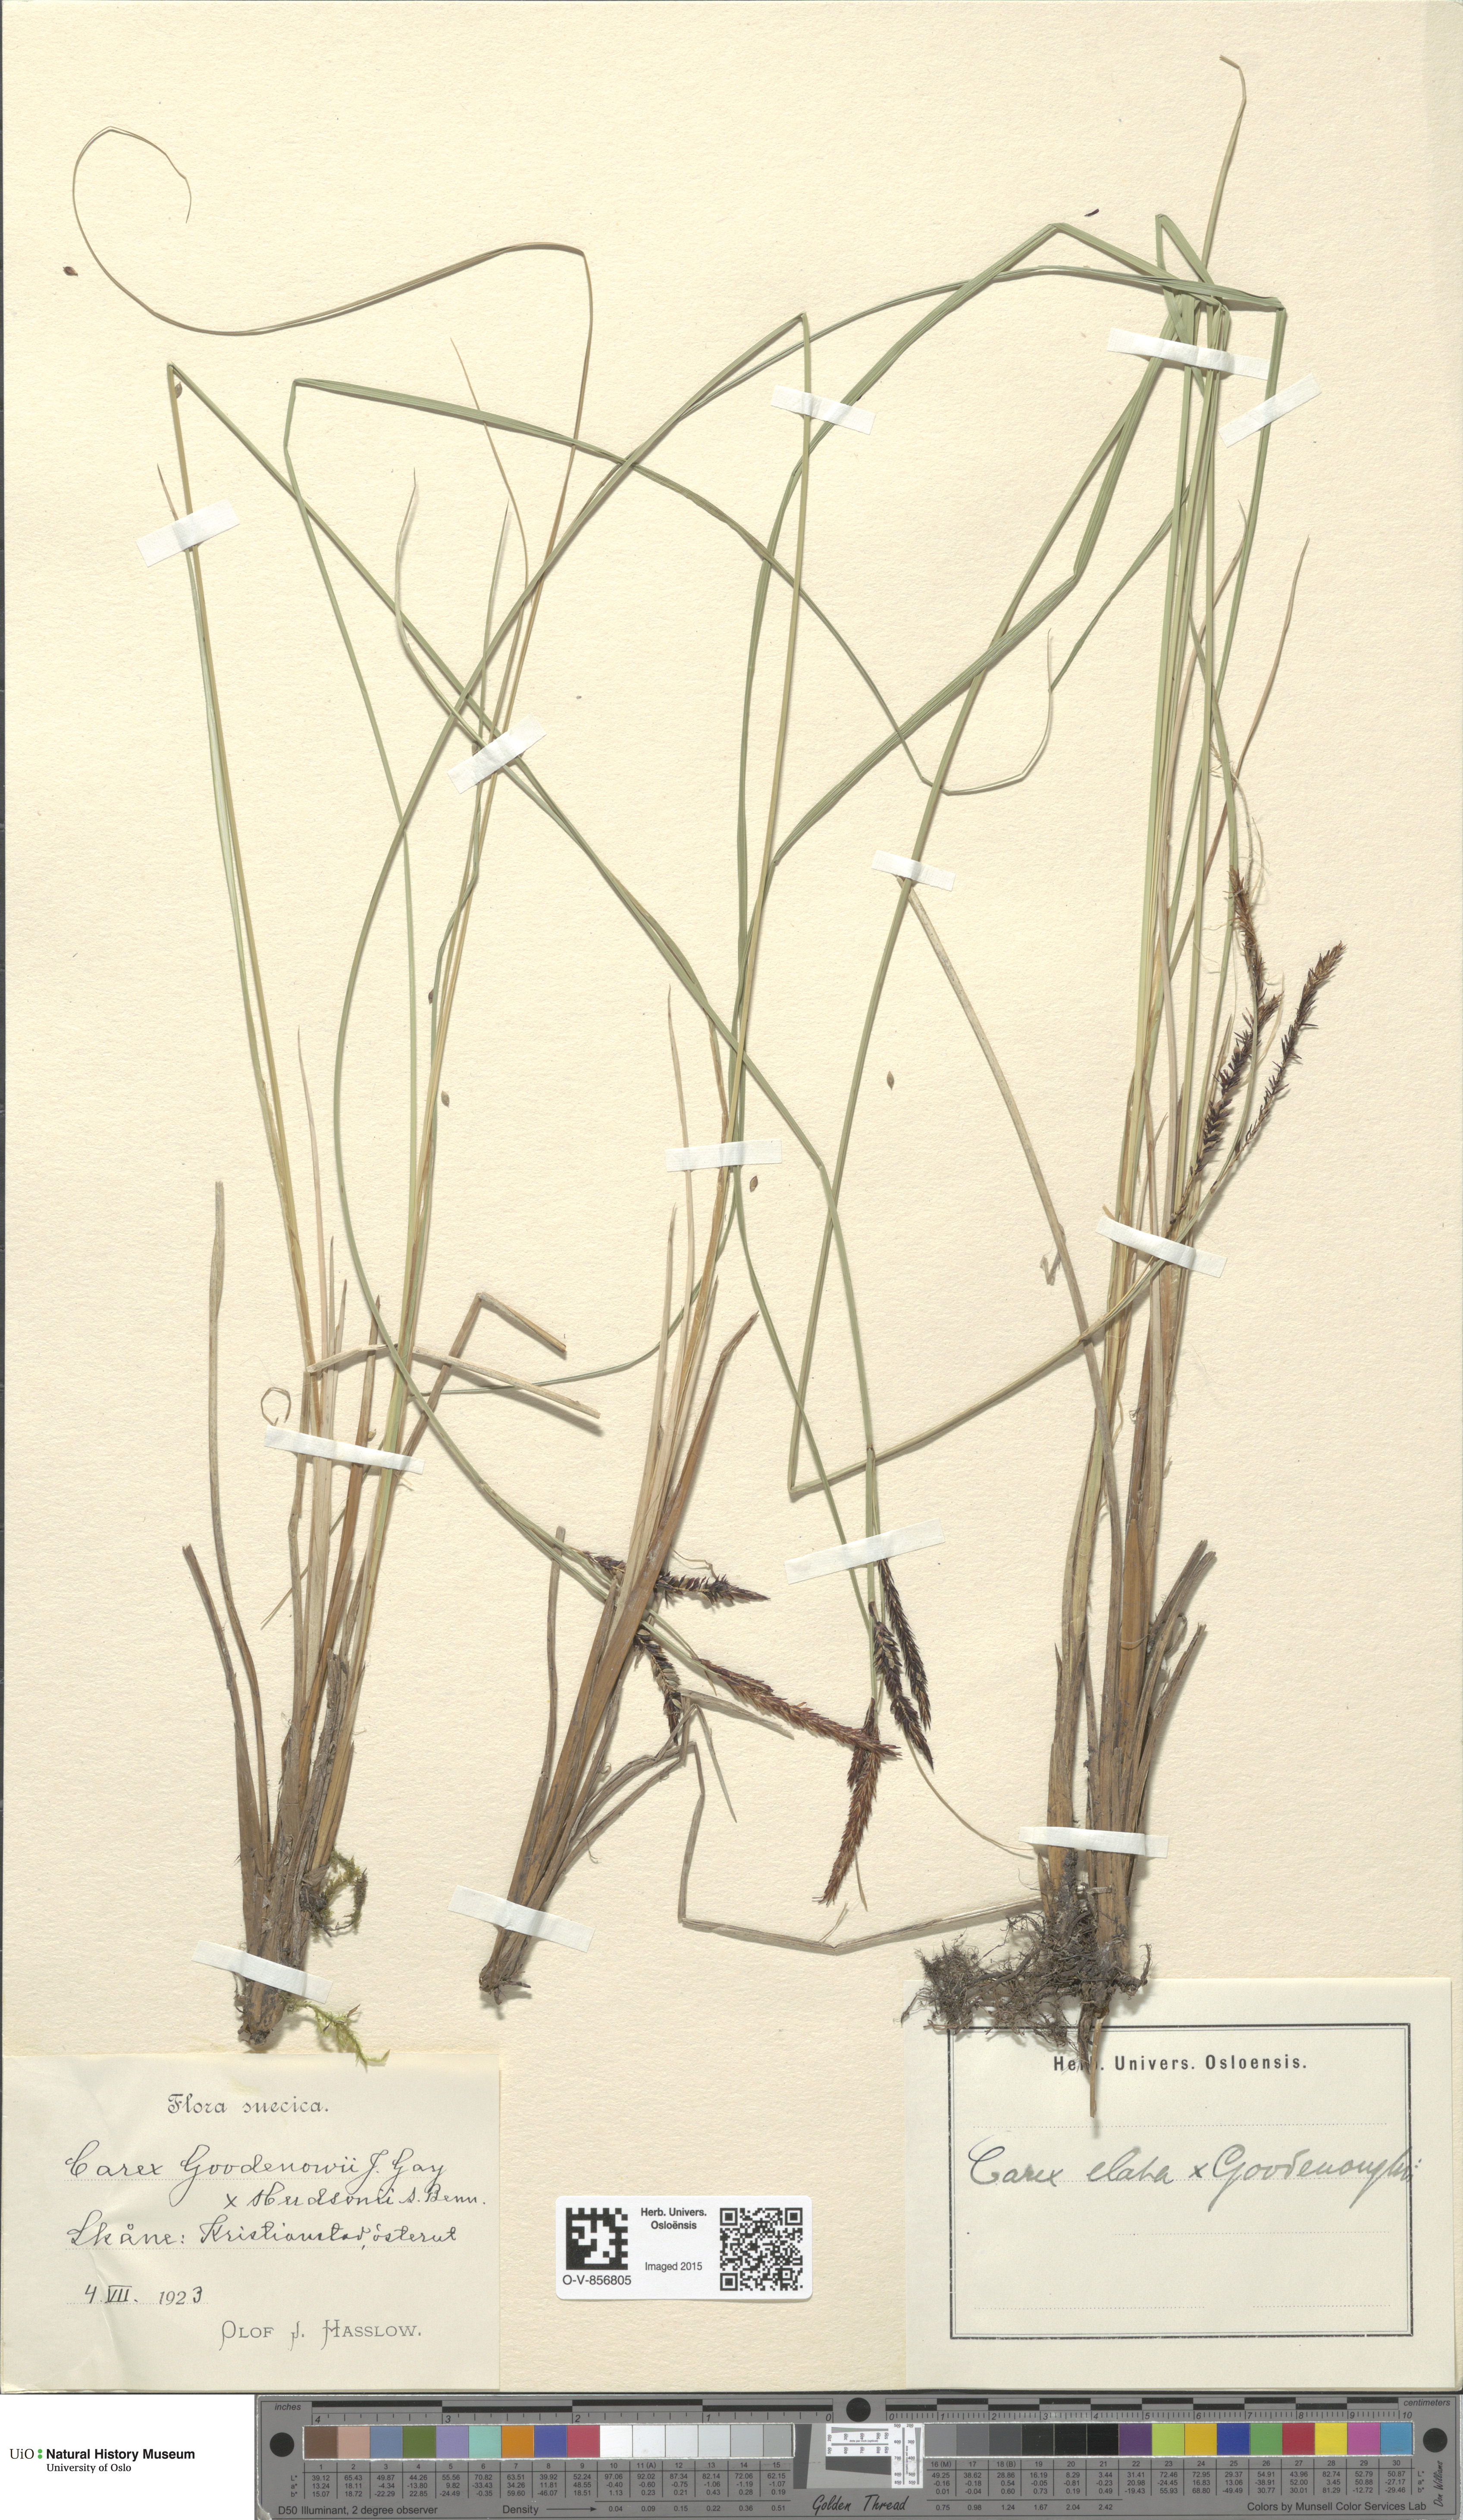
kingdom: Plantae
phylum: Tracheophyta
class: Liliopsida
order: Poales
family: Cyperaceae
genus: Carex
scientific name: Carex
